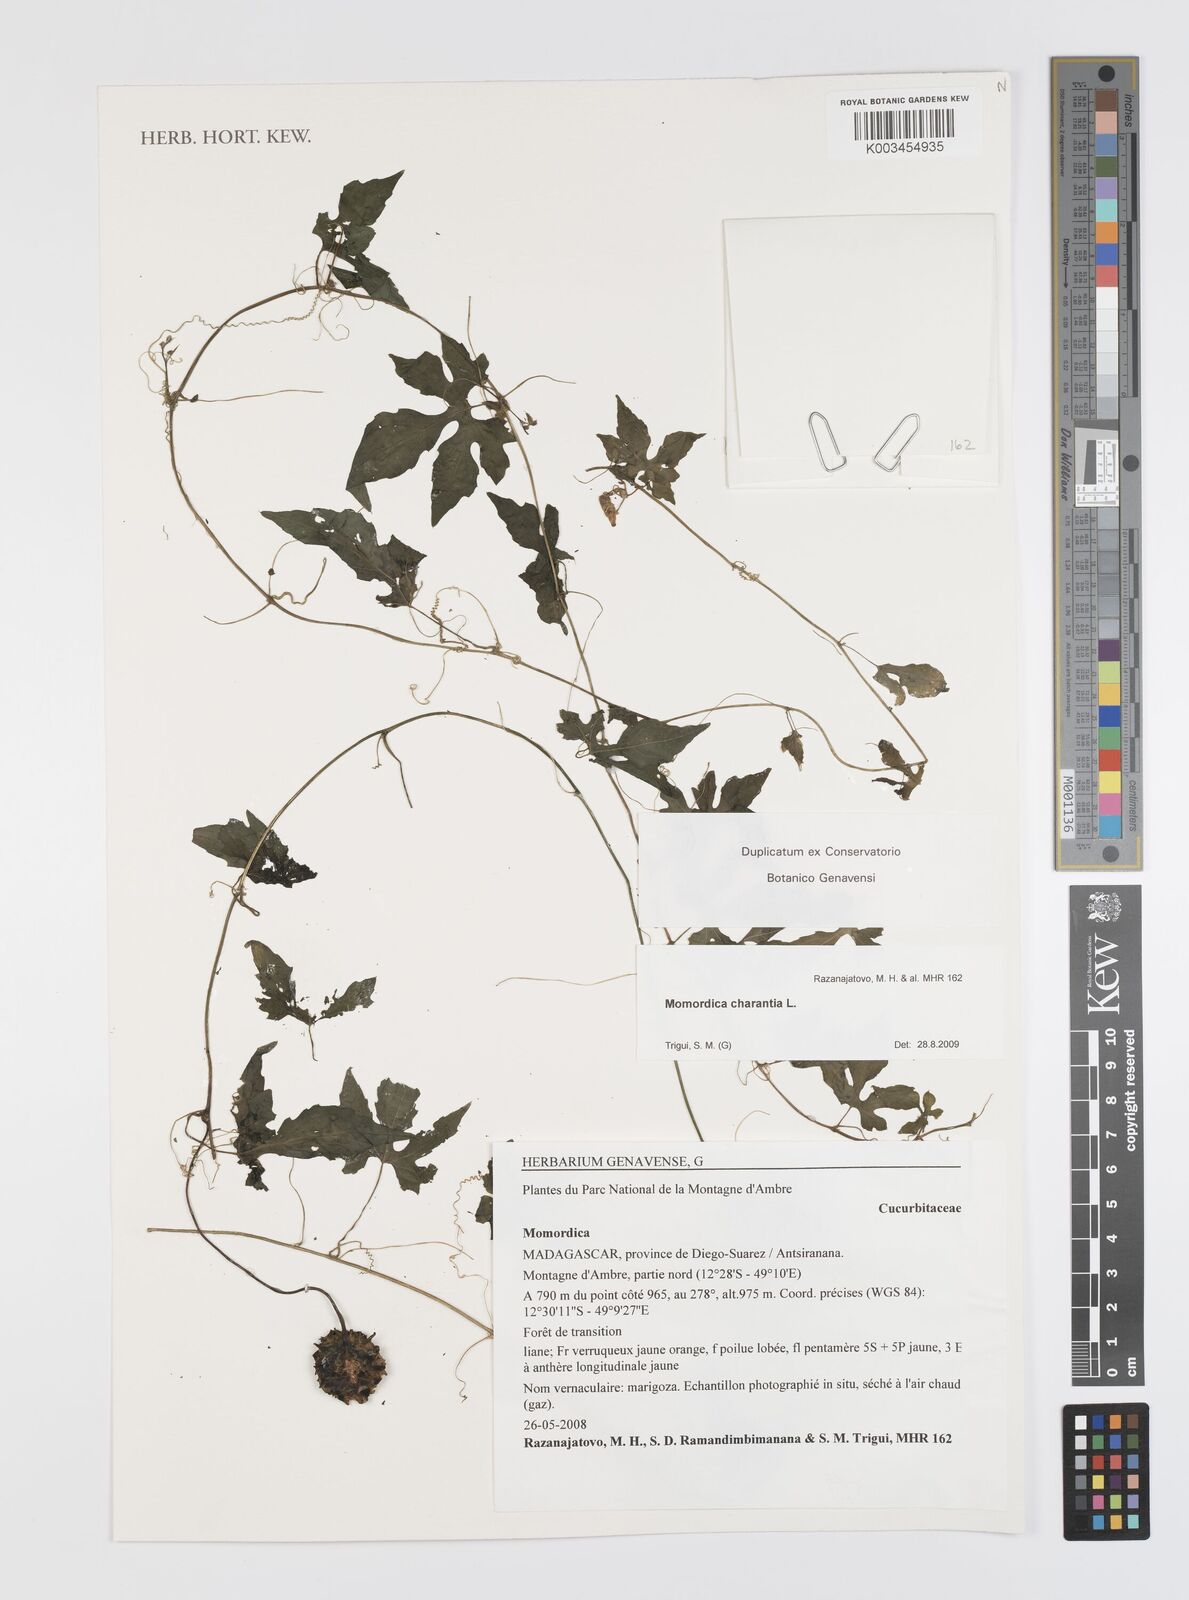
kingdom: Plantae
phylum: Tracheophyta
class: Magnoliopsida
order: Cucurbitales
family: Cucurbitaceae
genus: Momordica
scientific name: Momordica charantia
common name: Balsampear
